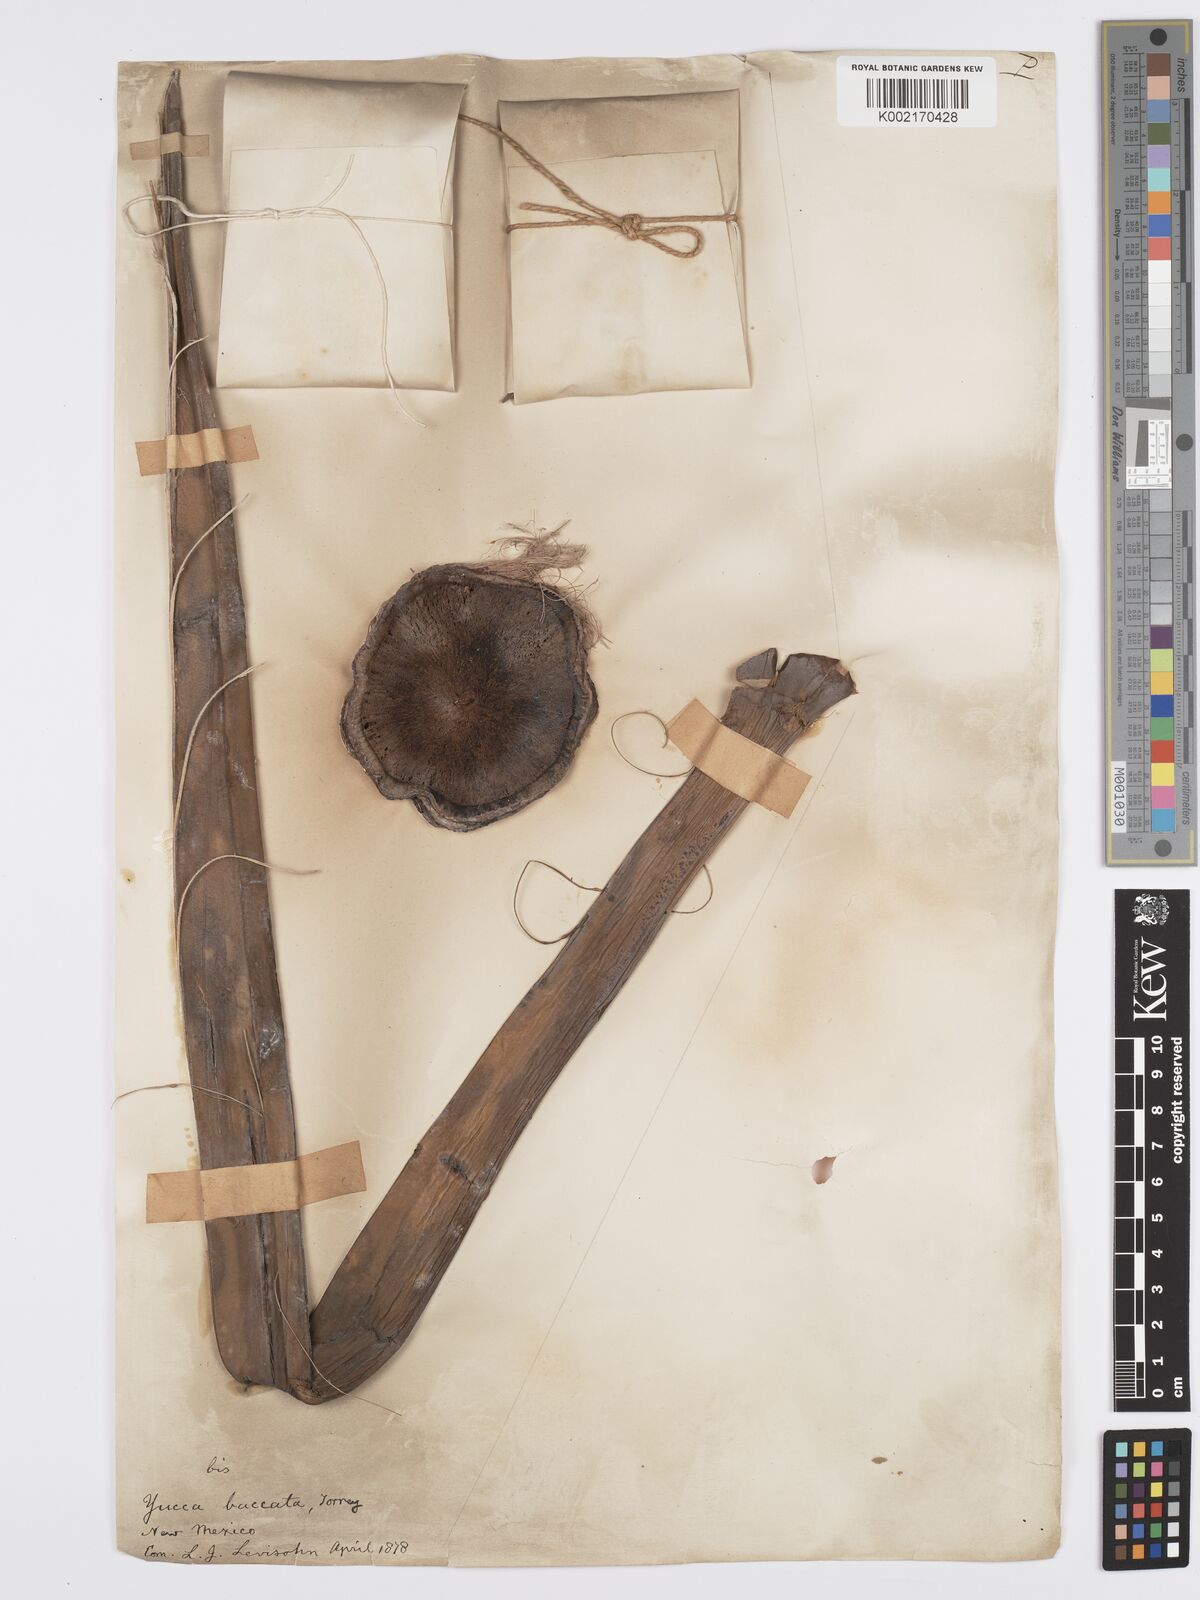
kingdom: Plantae
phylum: Tracheophyta
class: Liliopsida
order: Asparagales
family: Asparagaceae
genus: Yucca
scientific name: Yucca baccata
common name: Banana yucca
